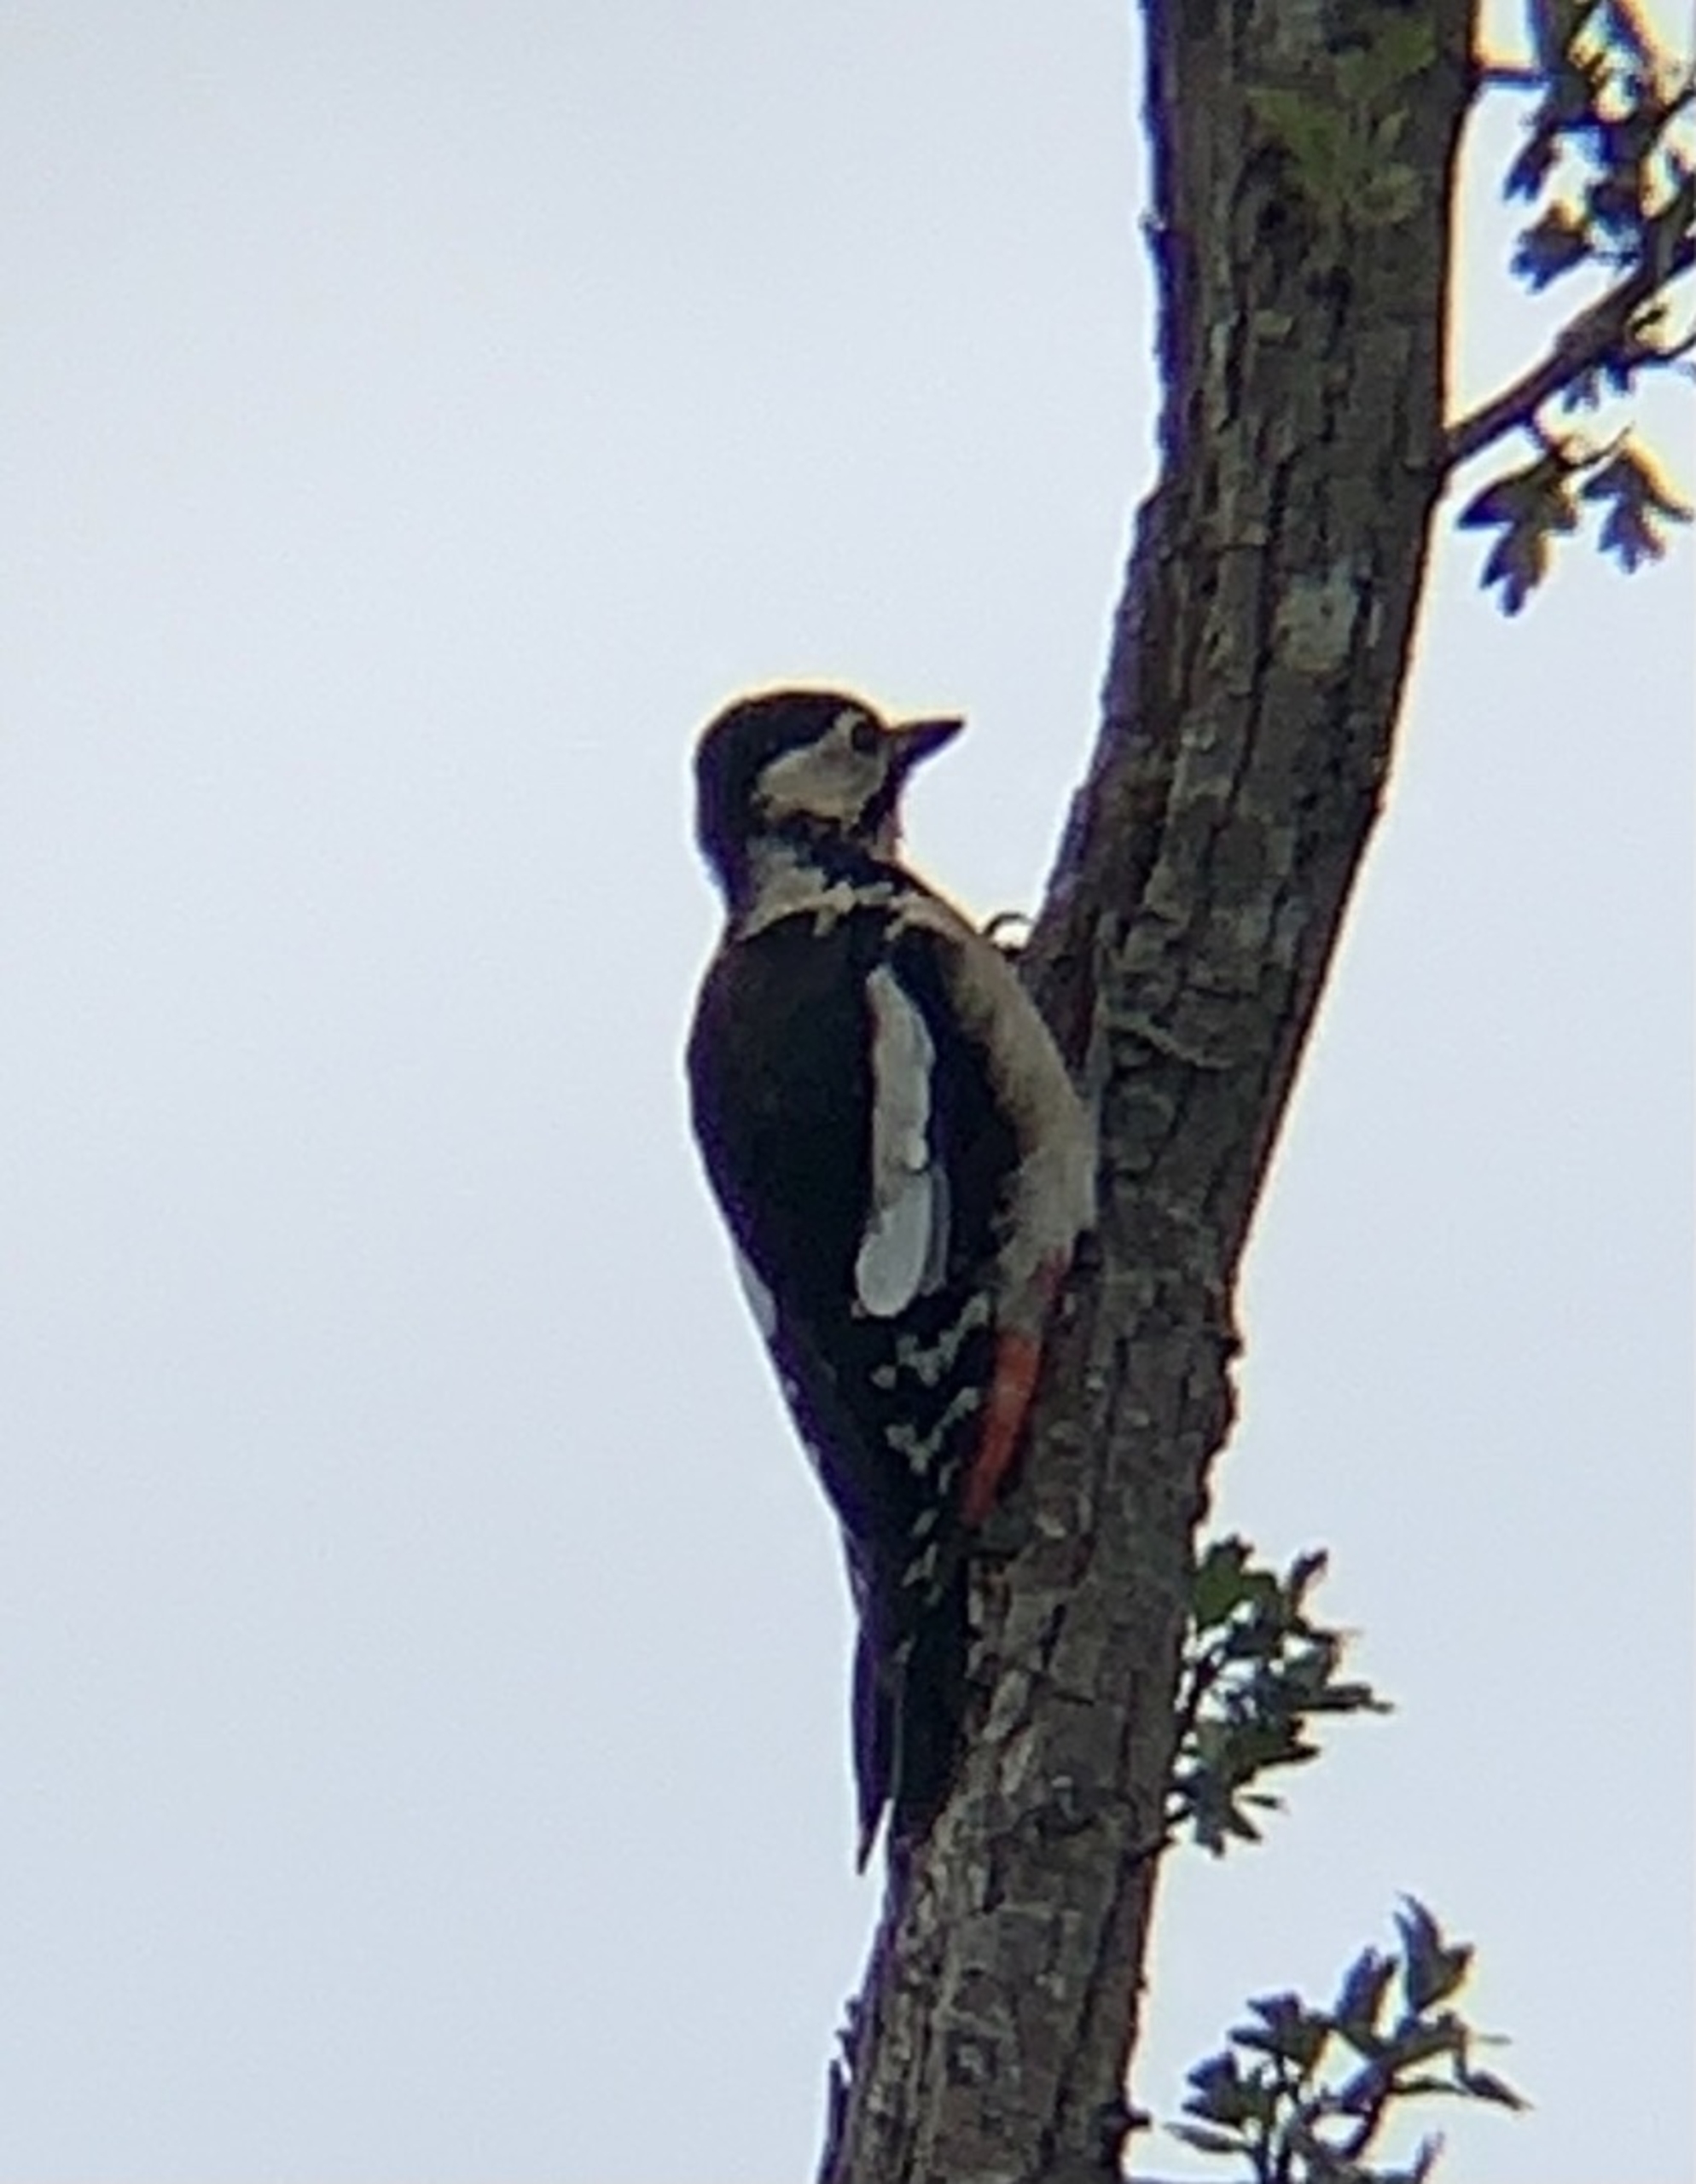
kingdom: Animalia
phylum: Chordata
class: Aves
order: Piciformes
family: Picidae
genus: Dendrocopos
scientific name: Dendrocopos major
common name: Stor flagspætte
